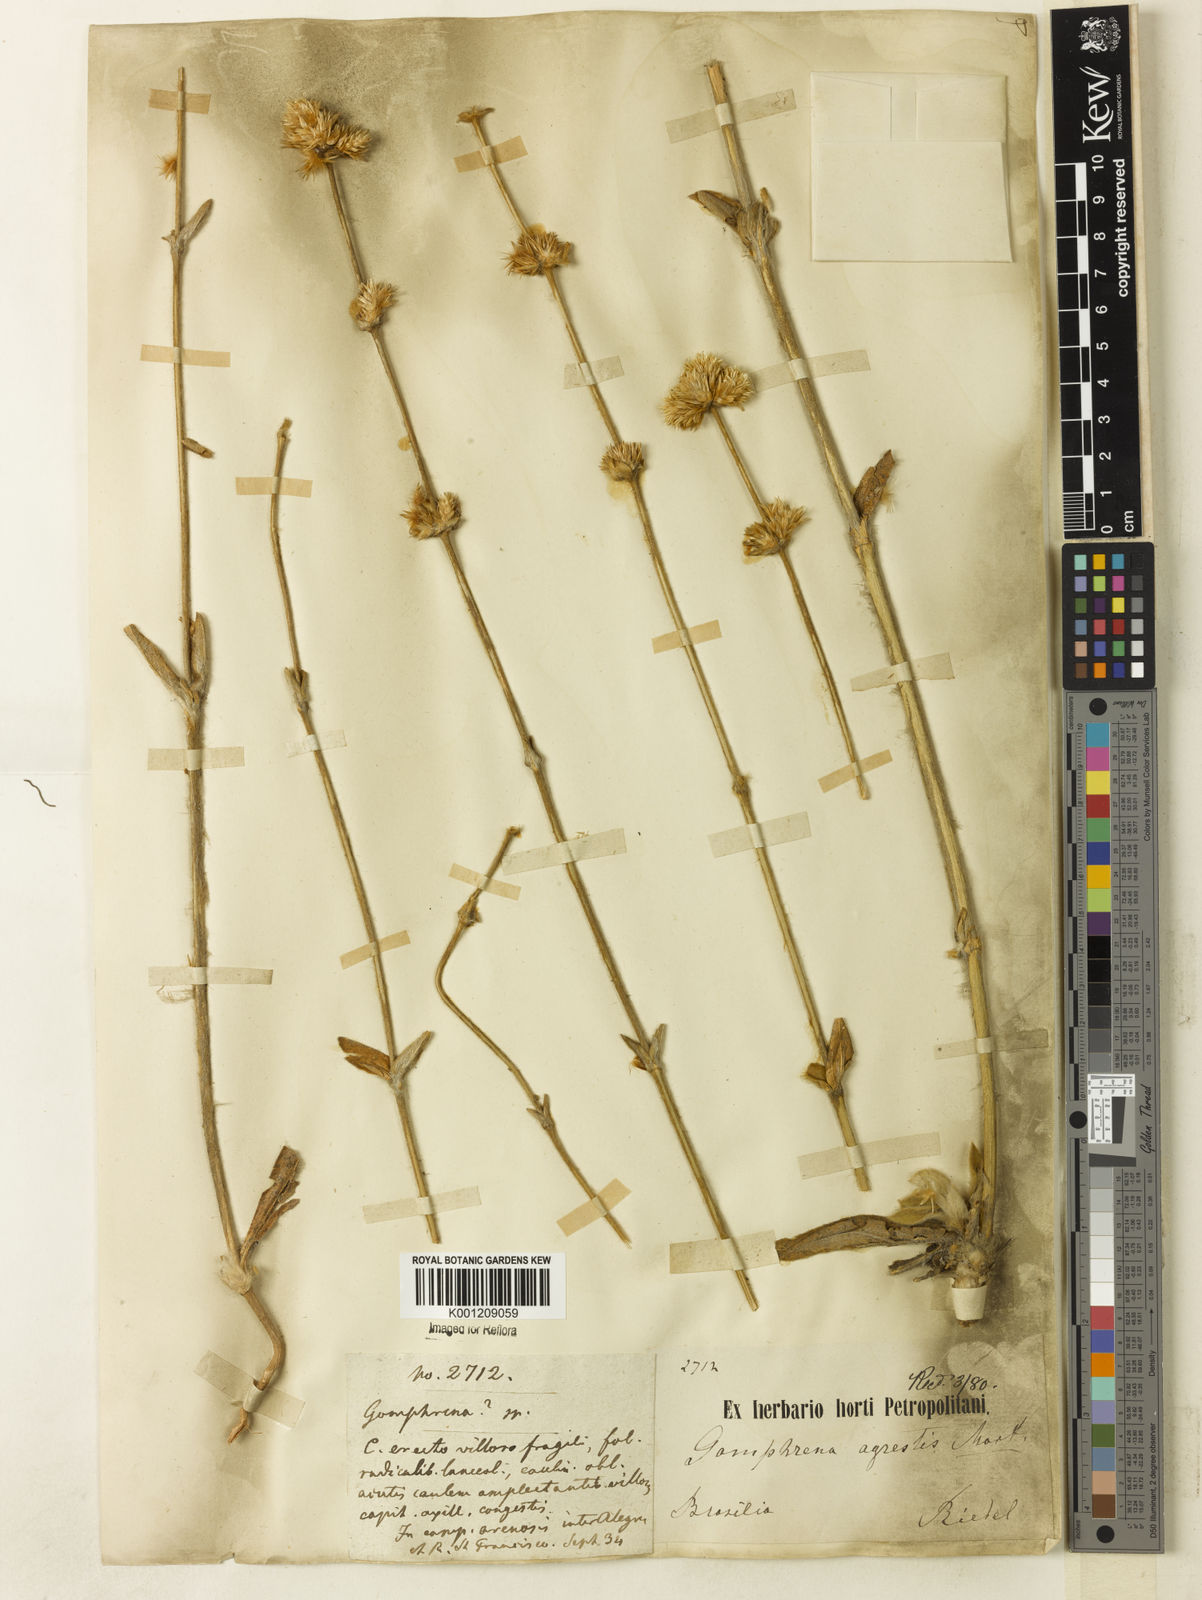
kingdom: Plantae
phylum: Tracheophyta
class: Magnoliopsida
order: Caryophyllales
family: Amaranthaceae
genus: Gomphrena
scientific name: Gomphrena agrestis
